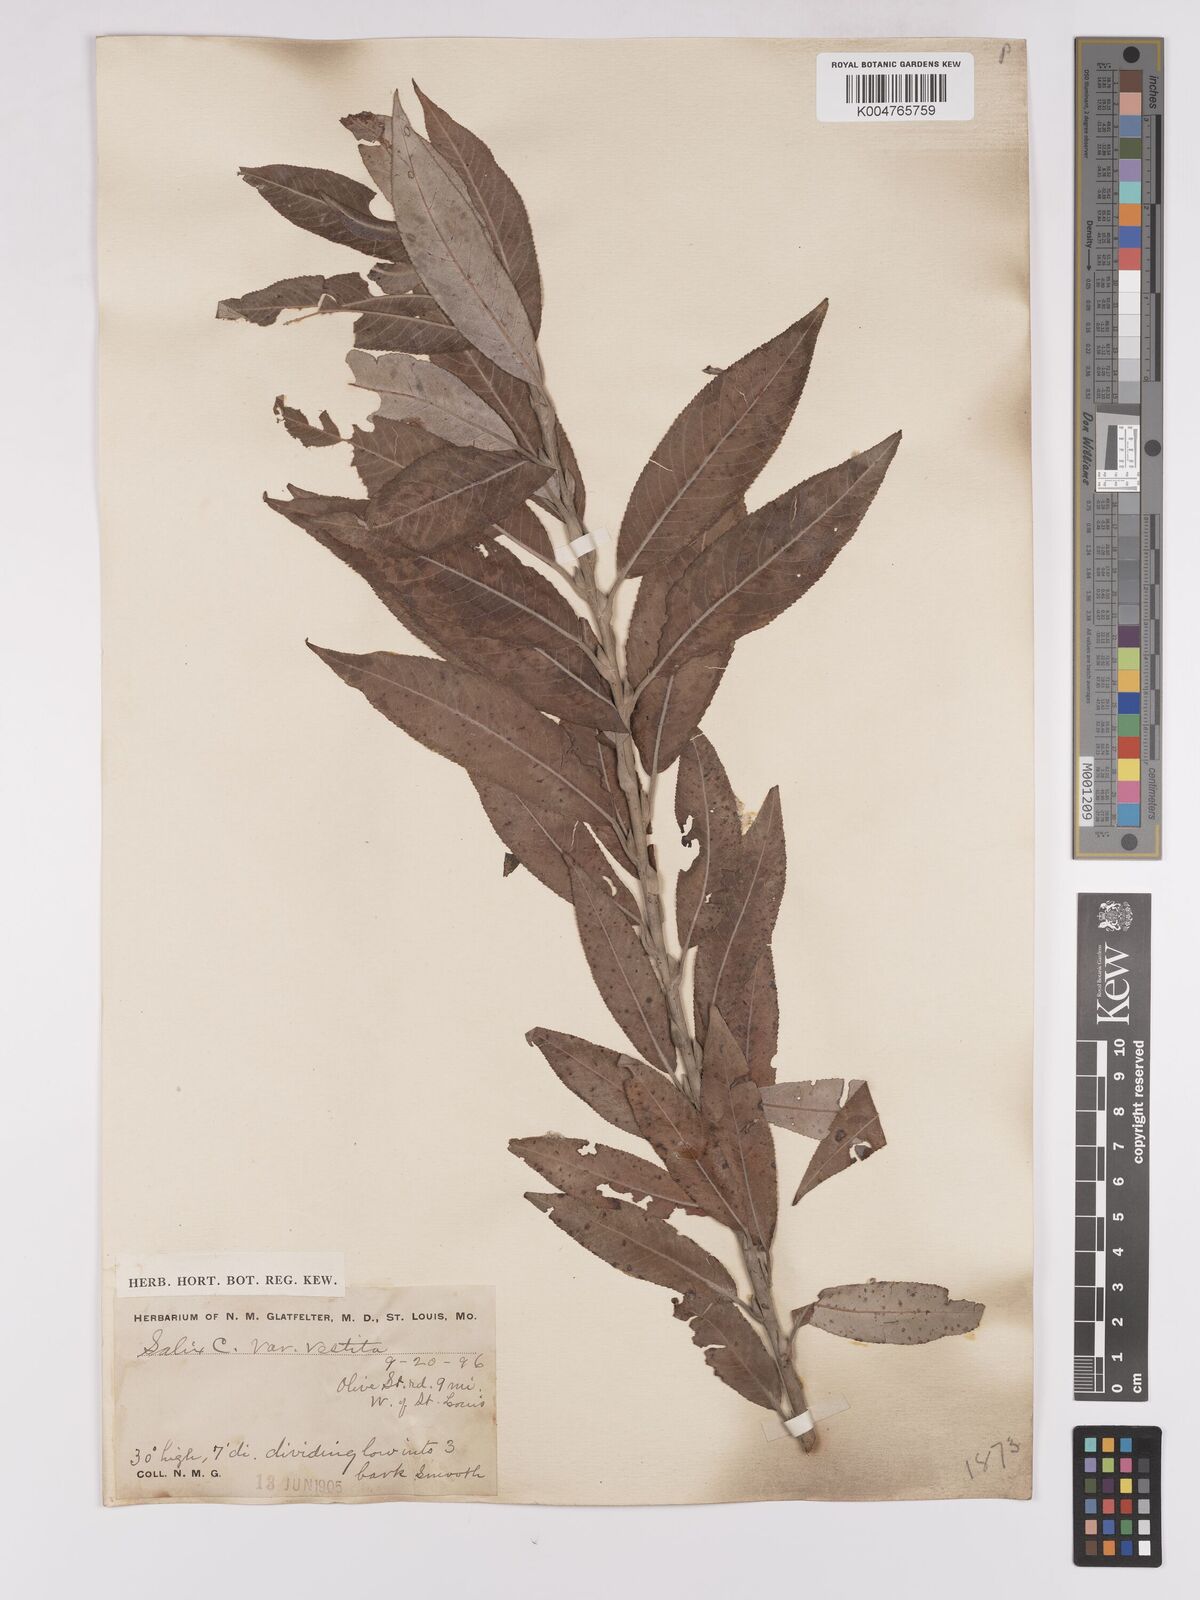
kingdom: Plantae
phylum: Tracheophyta
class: Magnoliopsida
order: Malpighiales
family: Salicaceae
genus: Salix
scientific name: Salix cordata
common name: Heart-leaf willow
